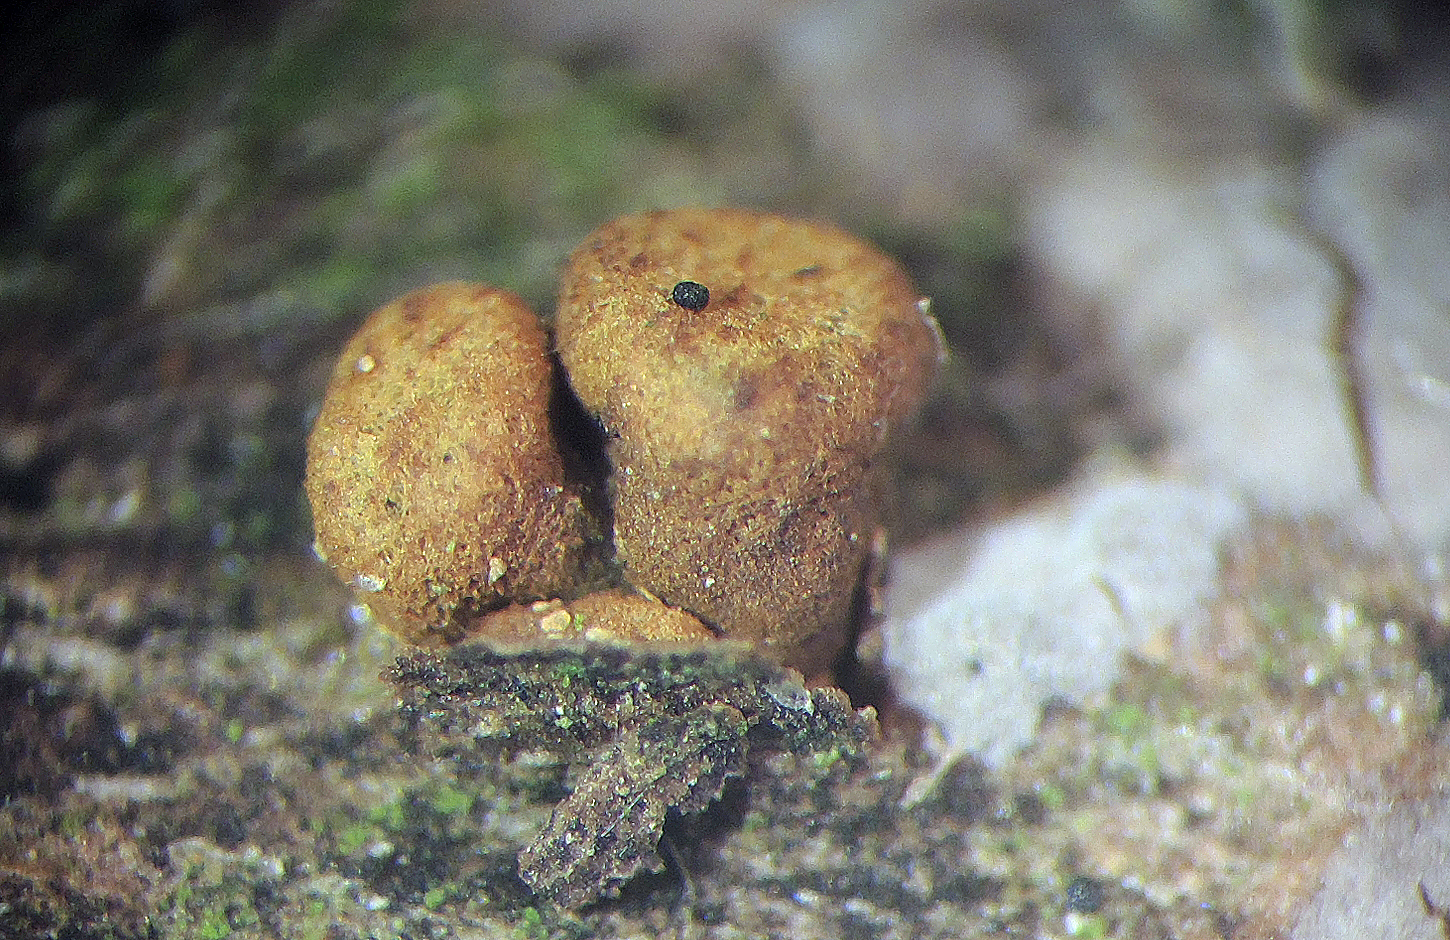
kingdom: Fungi
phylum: Ascomycota
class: Leotiomycetes
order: Helotiales
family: Cordieritidaceae
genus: Ionomidotis
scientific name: Ionomidotis fulvotingens
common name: rødmende tjæreskive
